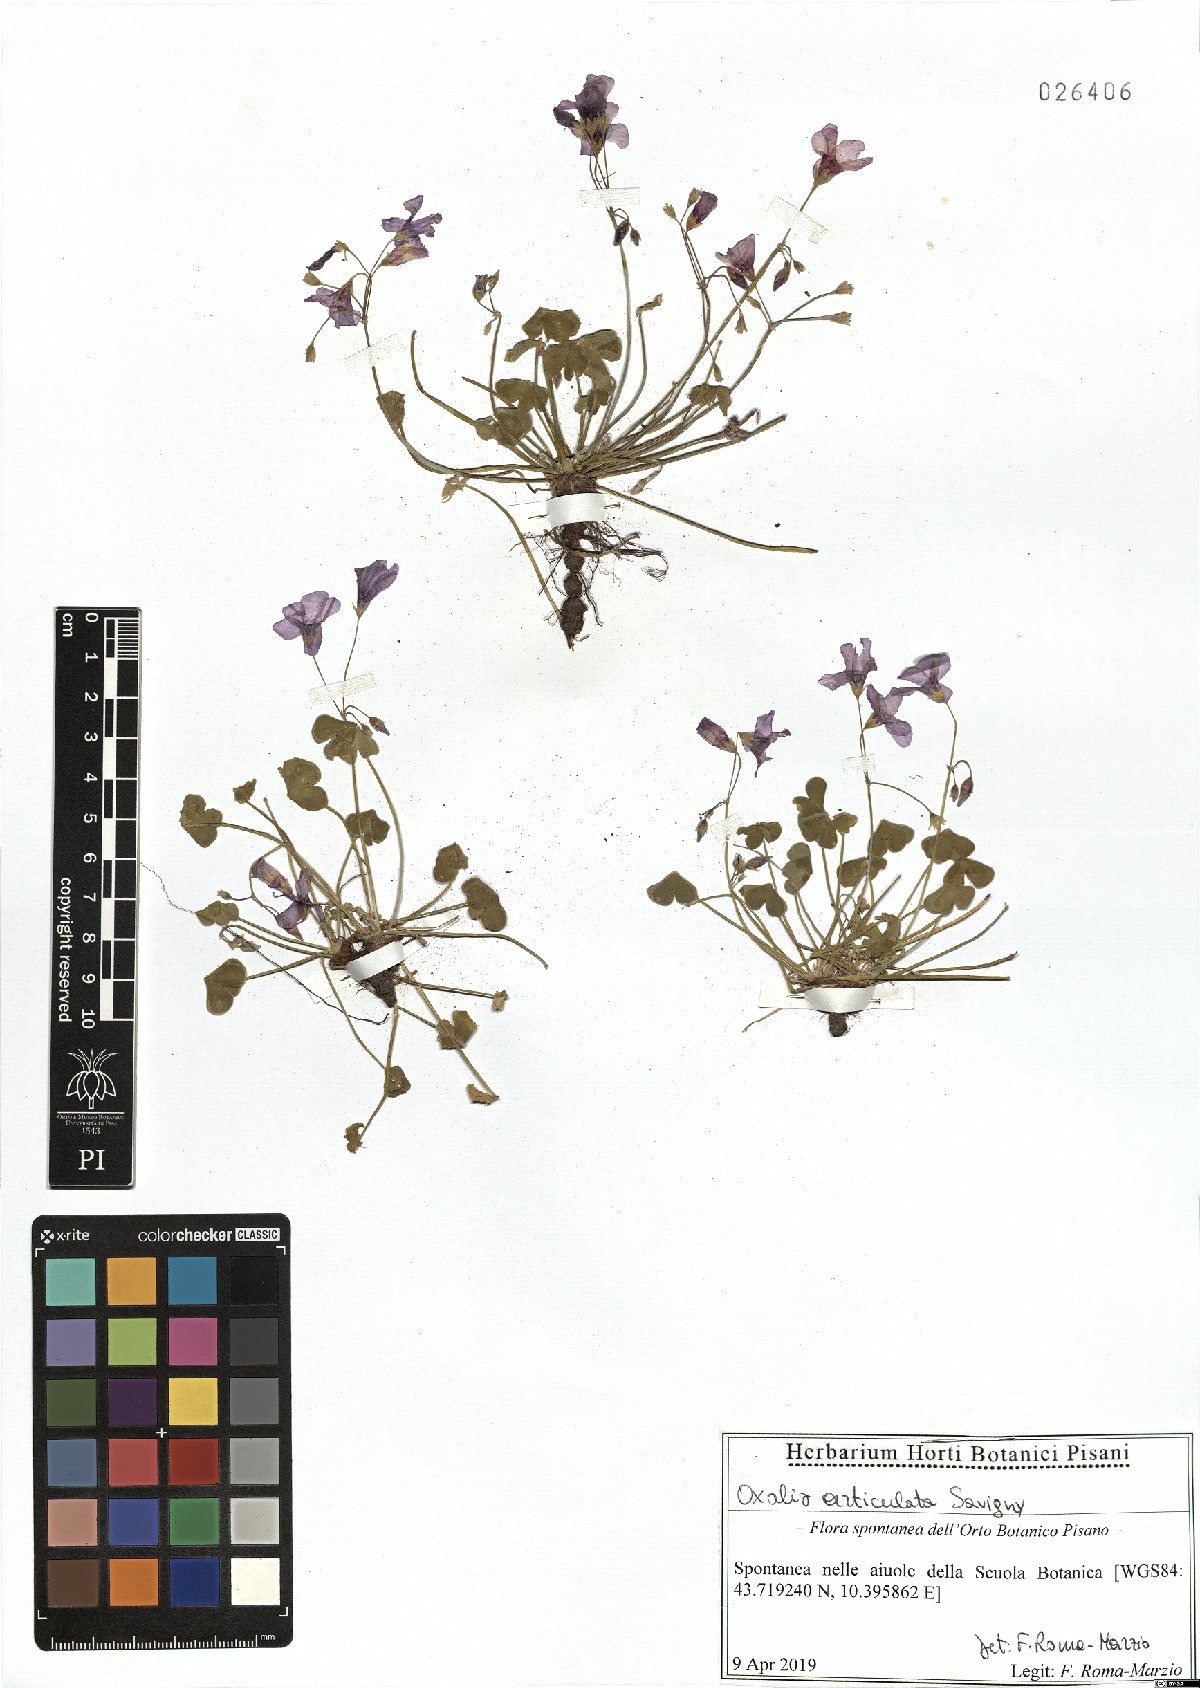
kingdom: Plantae
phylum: Tracheophyta
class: Magnoliopsida
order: Oxalidales
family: Oxalidaceae
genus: Oxalis
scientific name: Oxalis articulata
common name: Pink-sorrel
